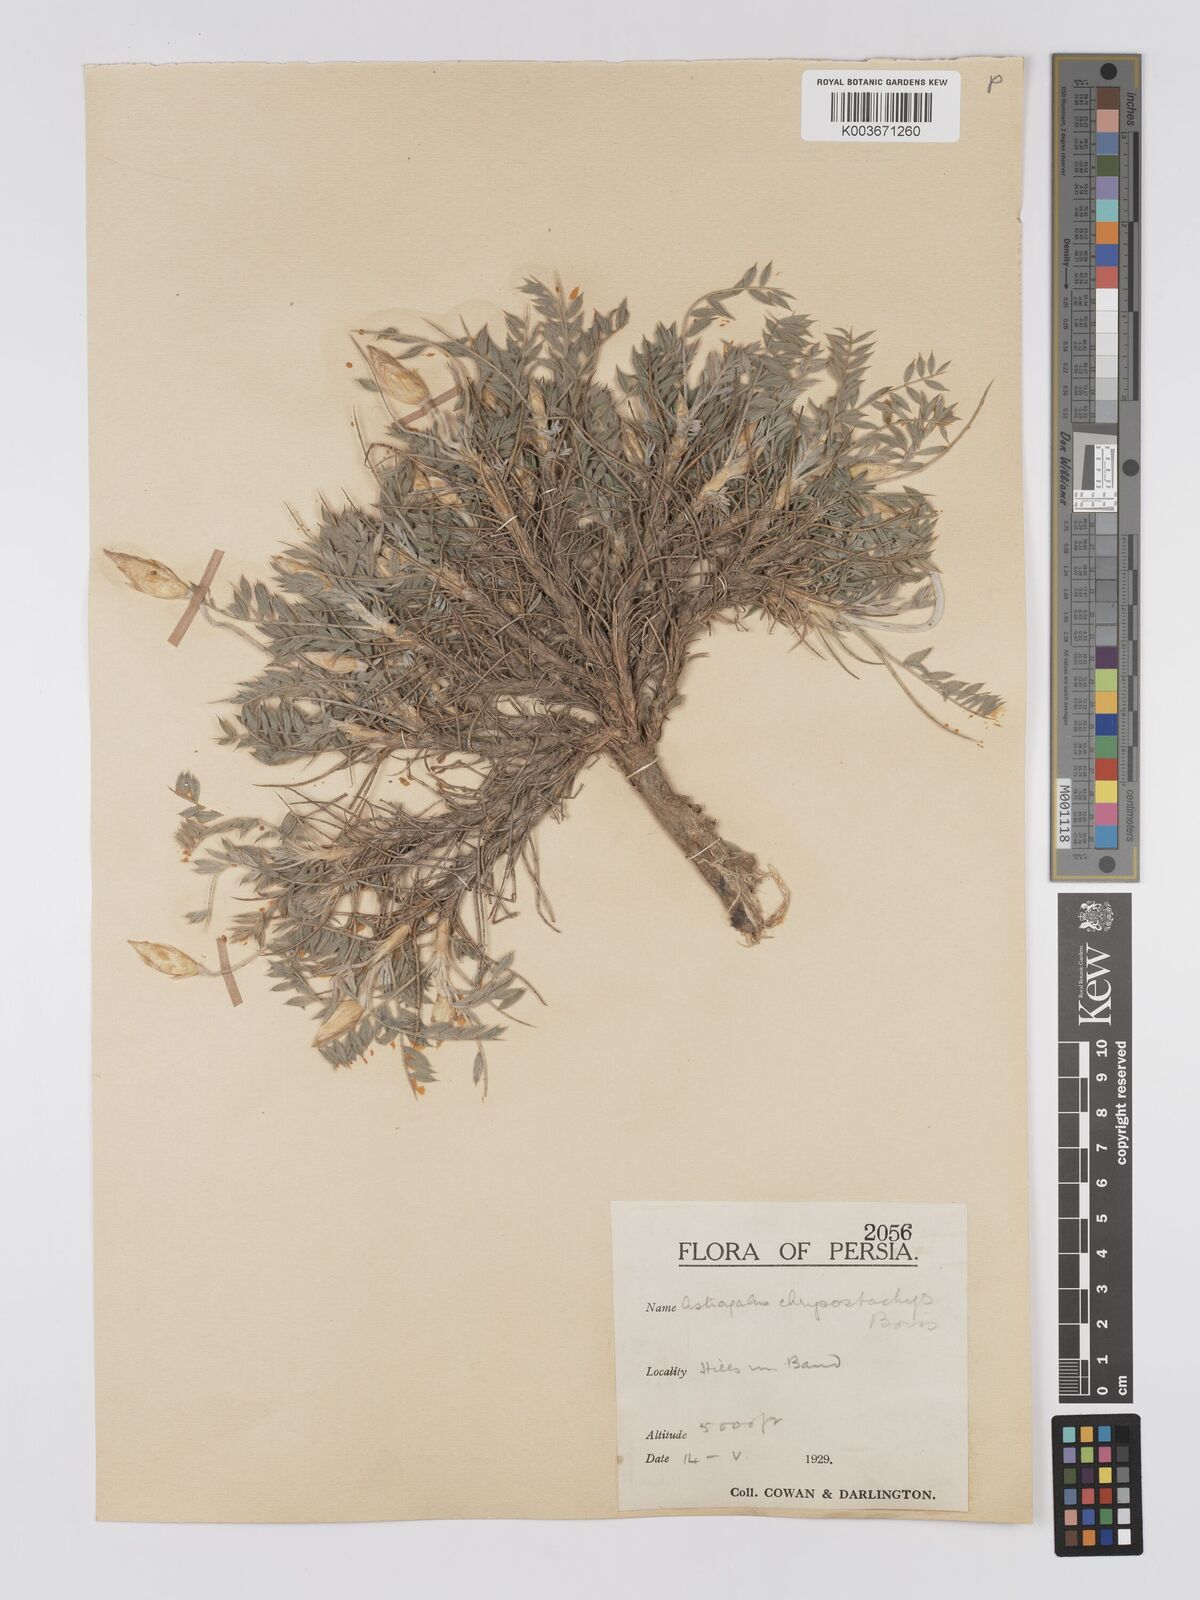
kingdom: Plantae
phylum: Tracheophyta
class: Magnoliopsida
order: Fabales
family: Fabaceae
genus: Astragalus
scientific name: Astragalus chrysostachys
